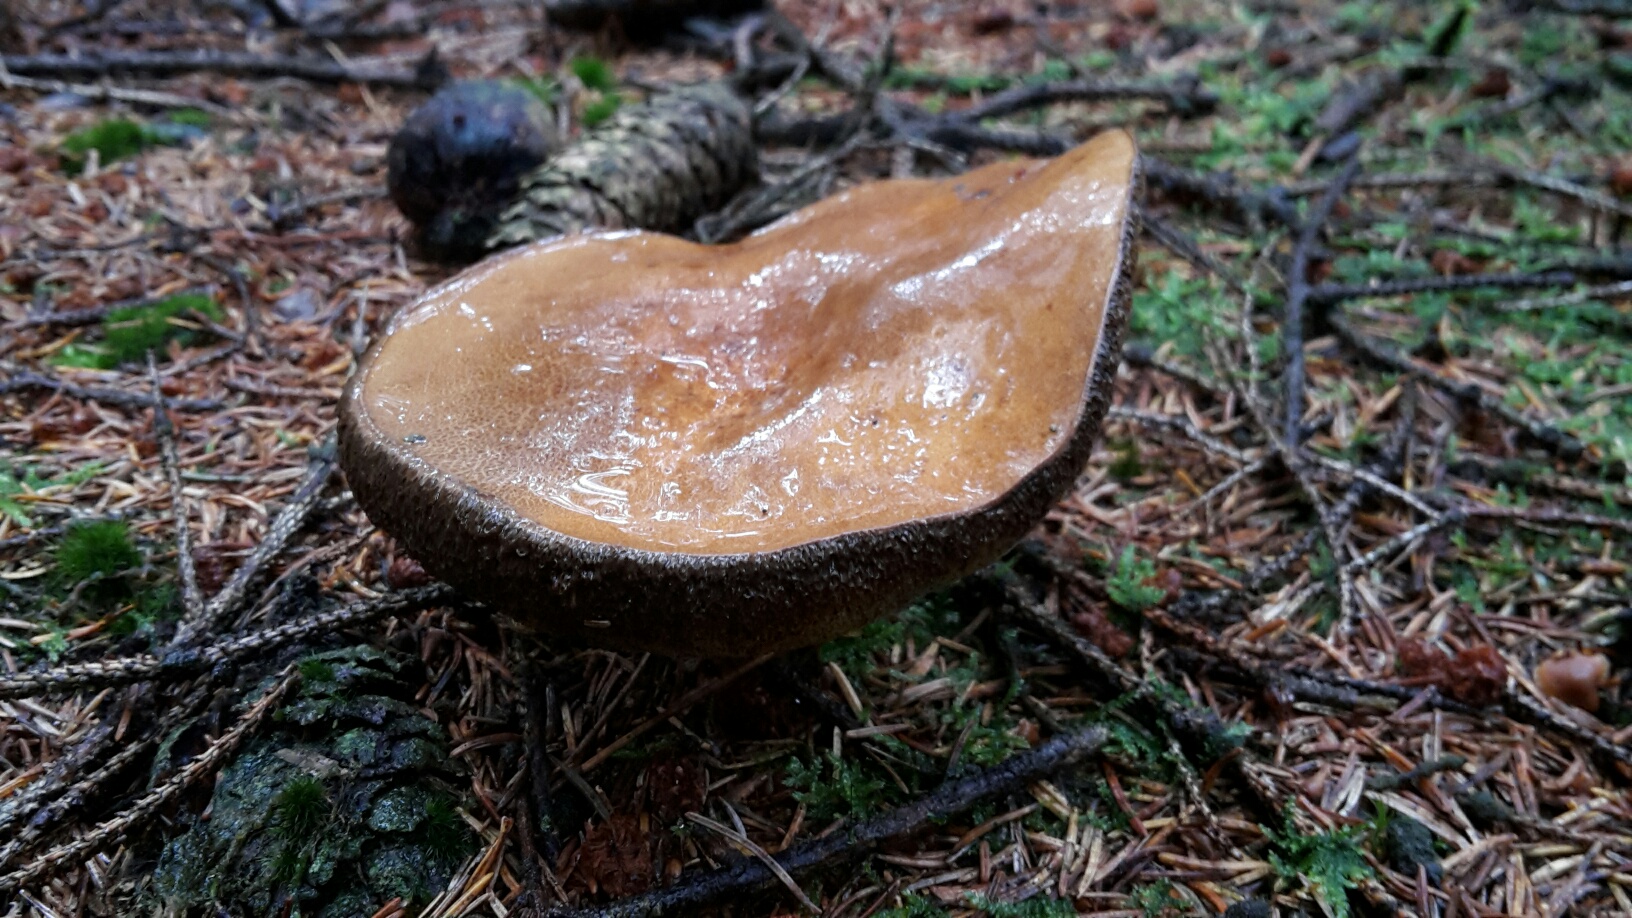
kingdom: Fungi
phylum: Basidiomycota
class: Agaricomycetes
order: Boletales
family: Boletaceae
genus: Imleria
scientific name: Imleria badia
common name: brunstokket rørhat
